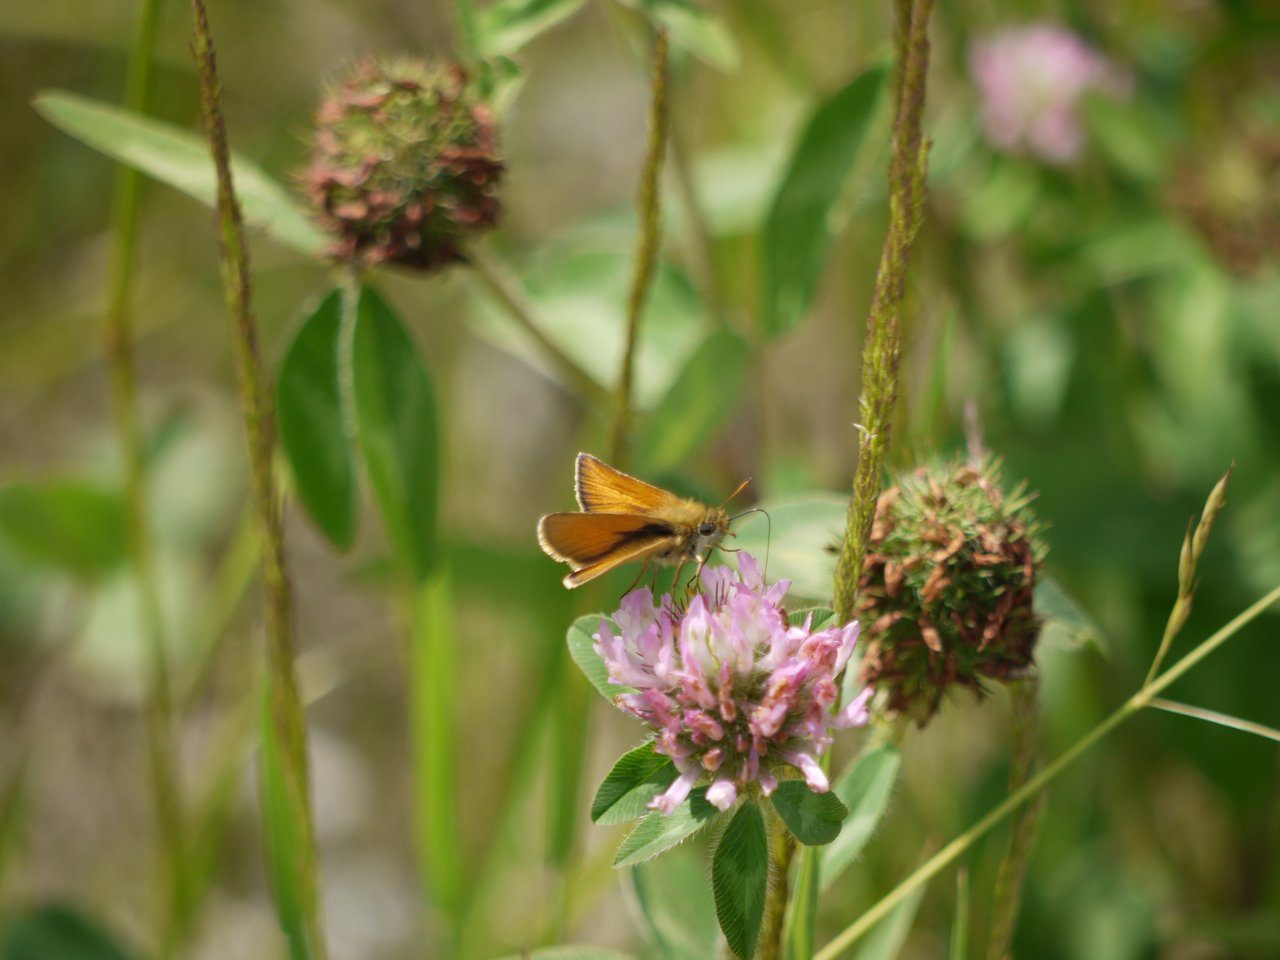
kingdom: Animalia
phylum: Arthropoda
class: Insecta
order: Lepidoptera
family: Hesperiidae
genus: Thymelicus
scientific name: Thymelicus lineola
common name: European Skipper
